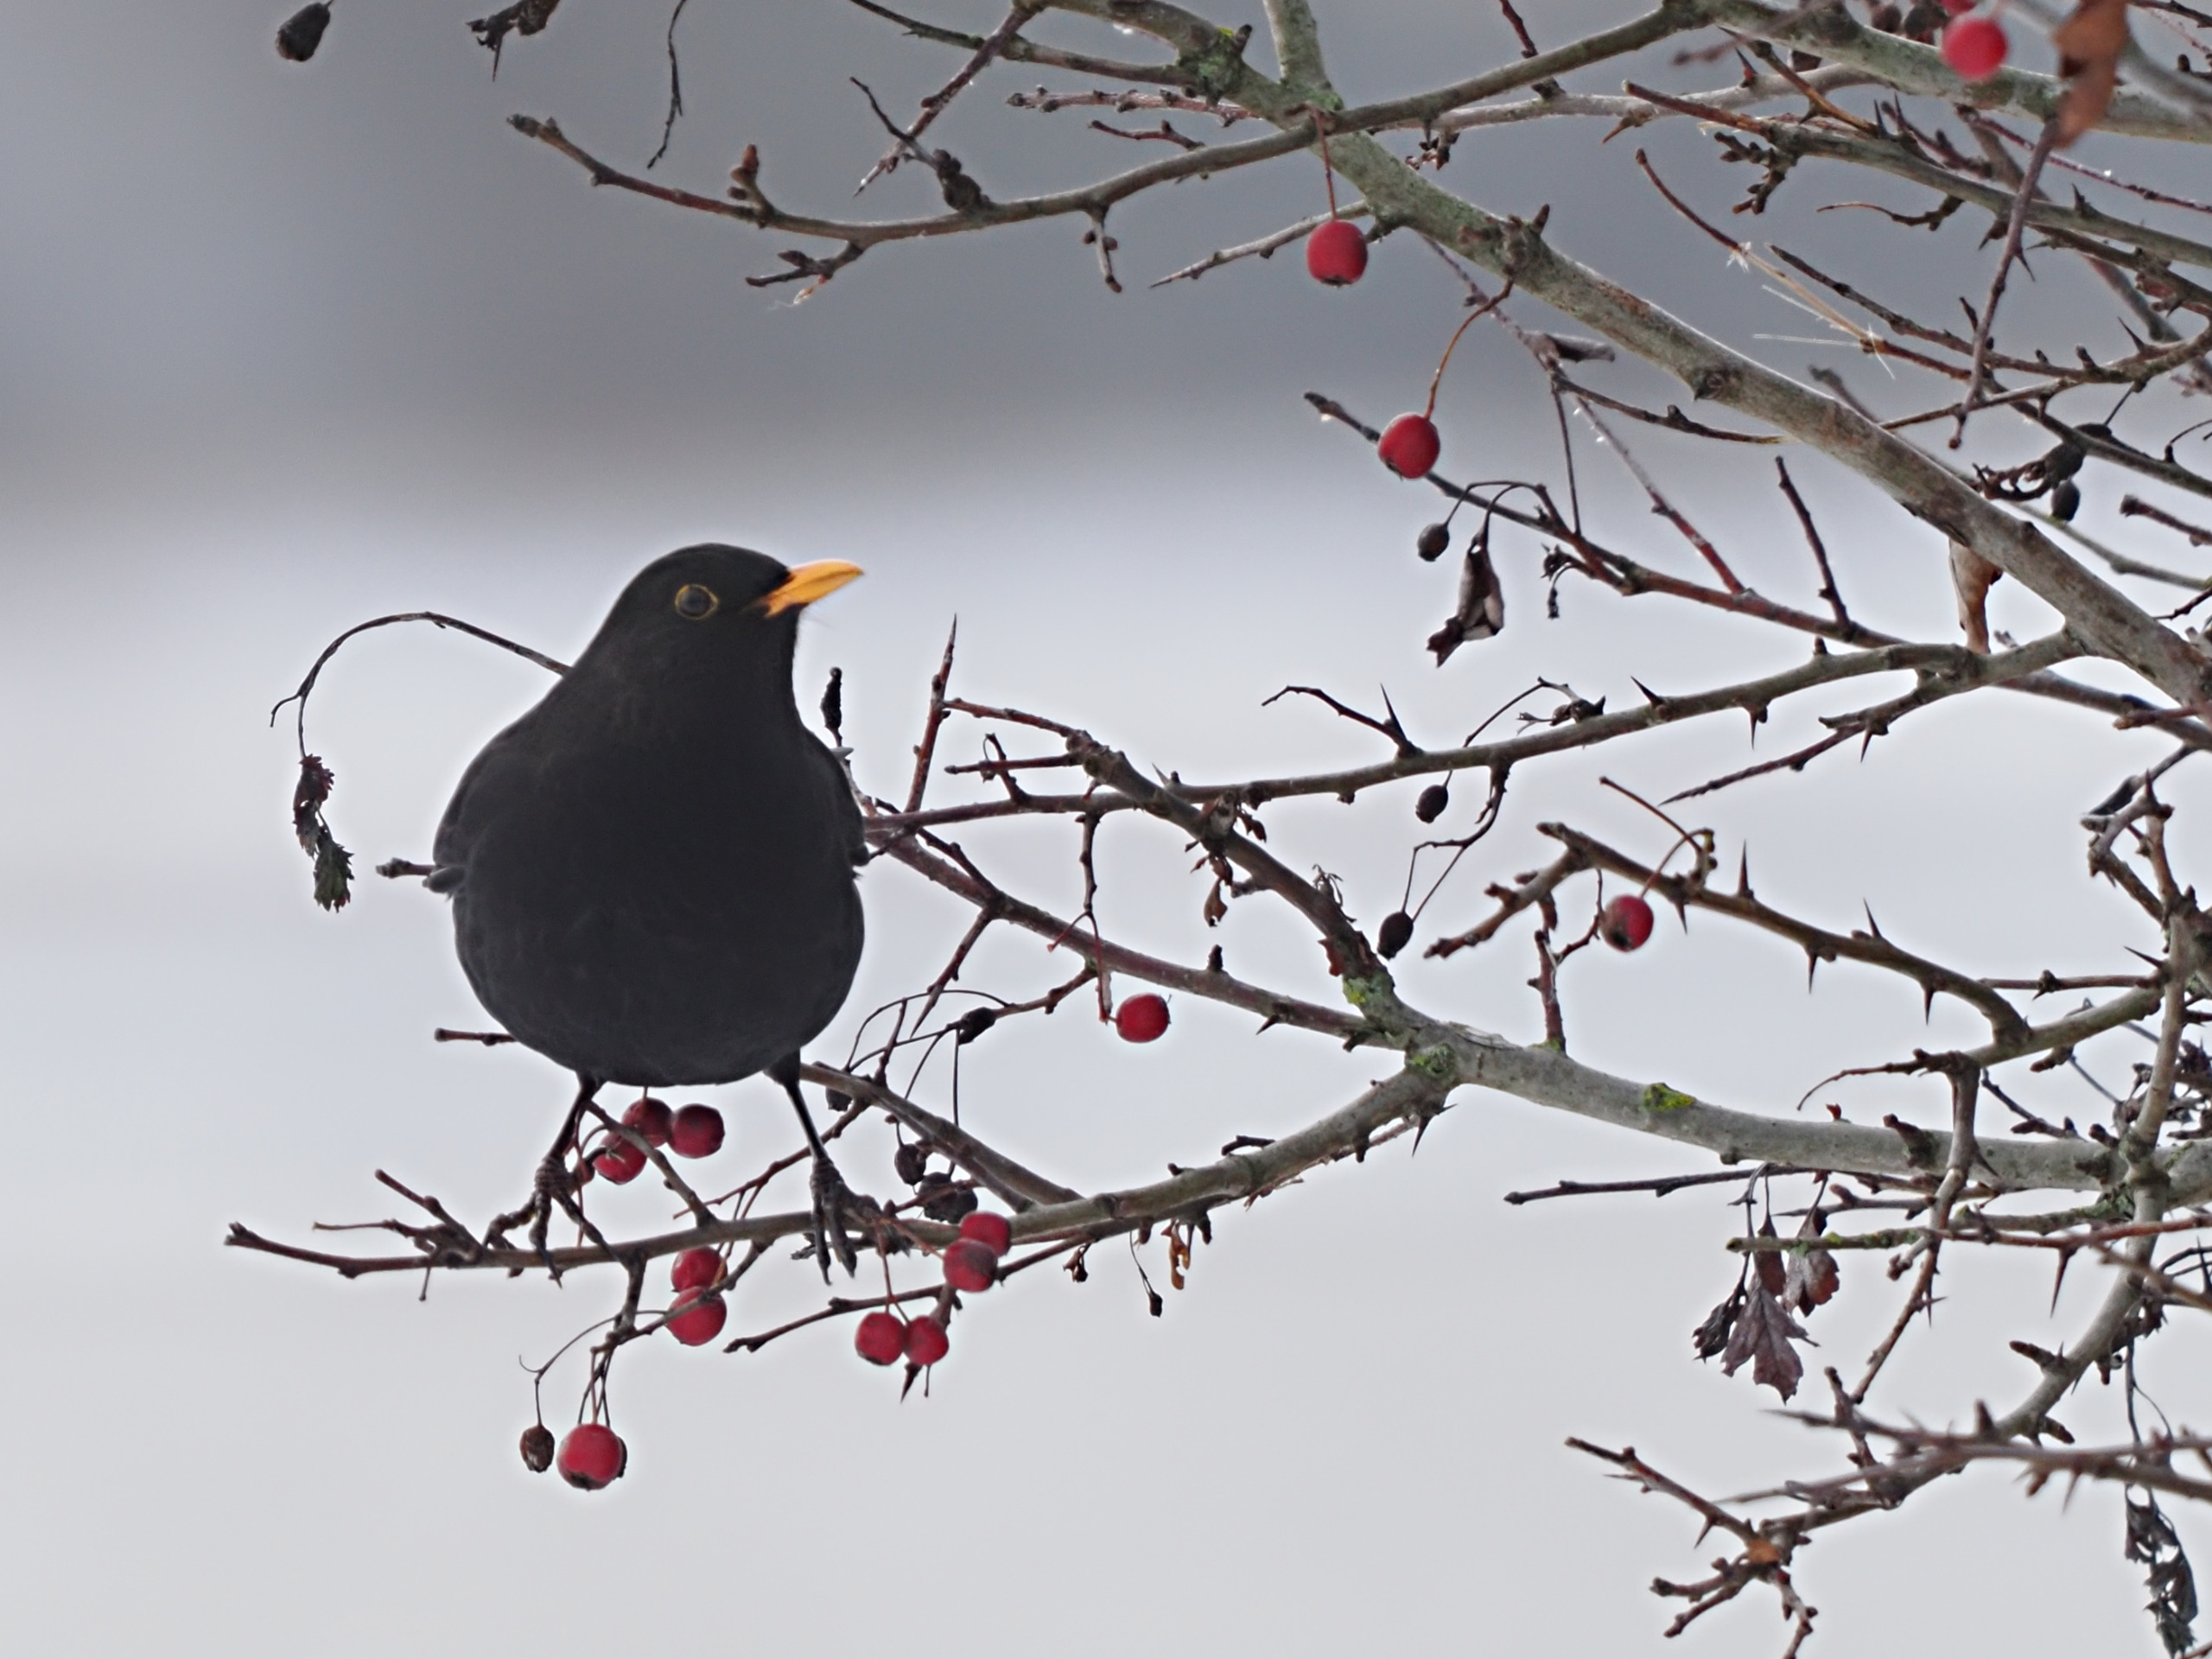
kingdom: Animalia
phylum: Chordata
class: Aves
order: Passeriformes
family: Turdidae
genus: Turdus
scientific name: Turdus merula
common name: Solsort
